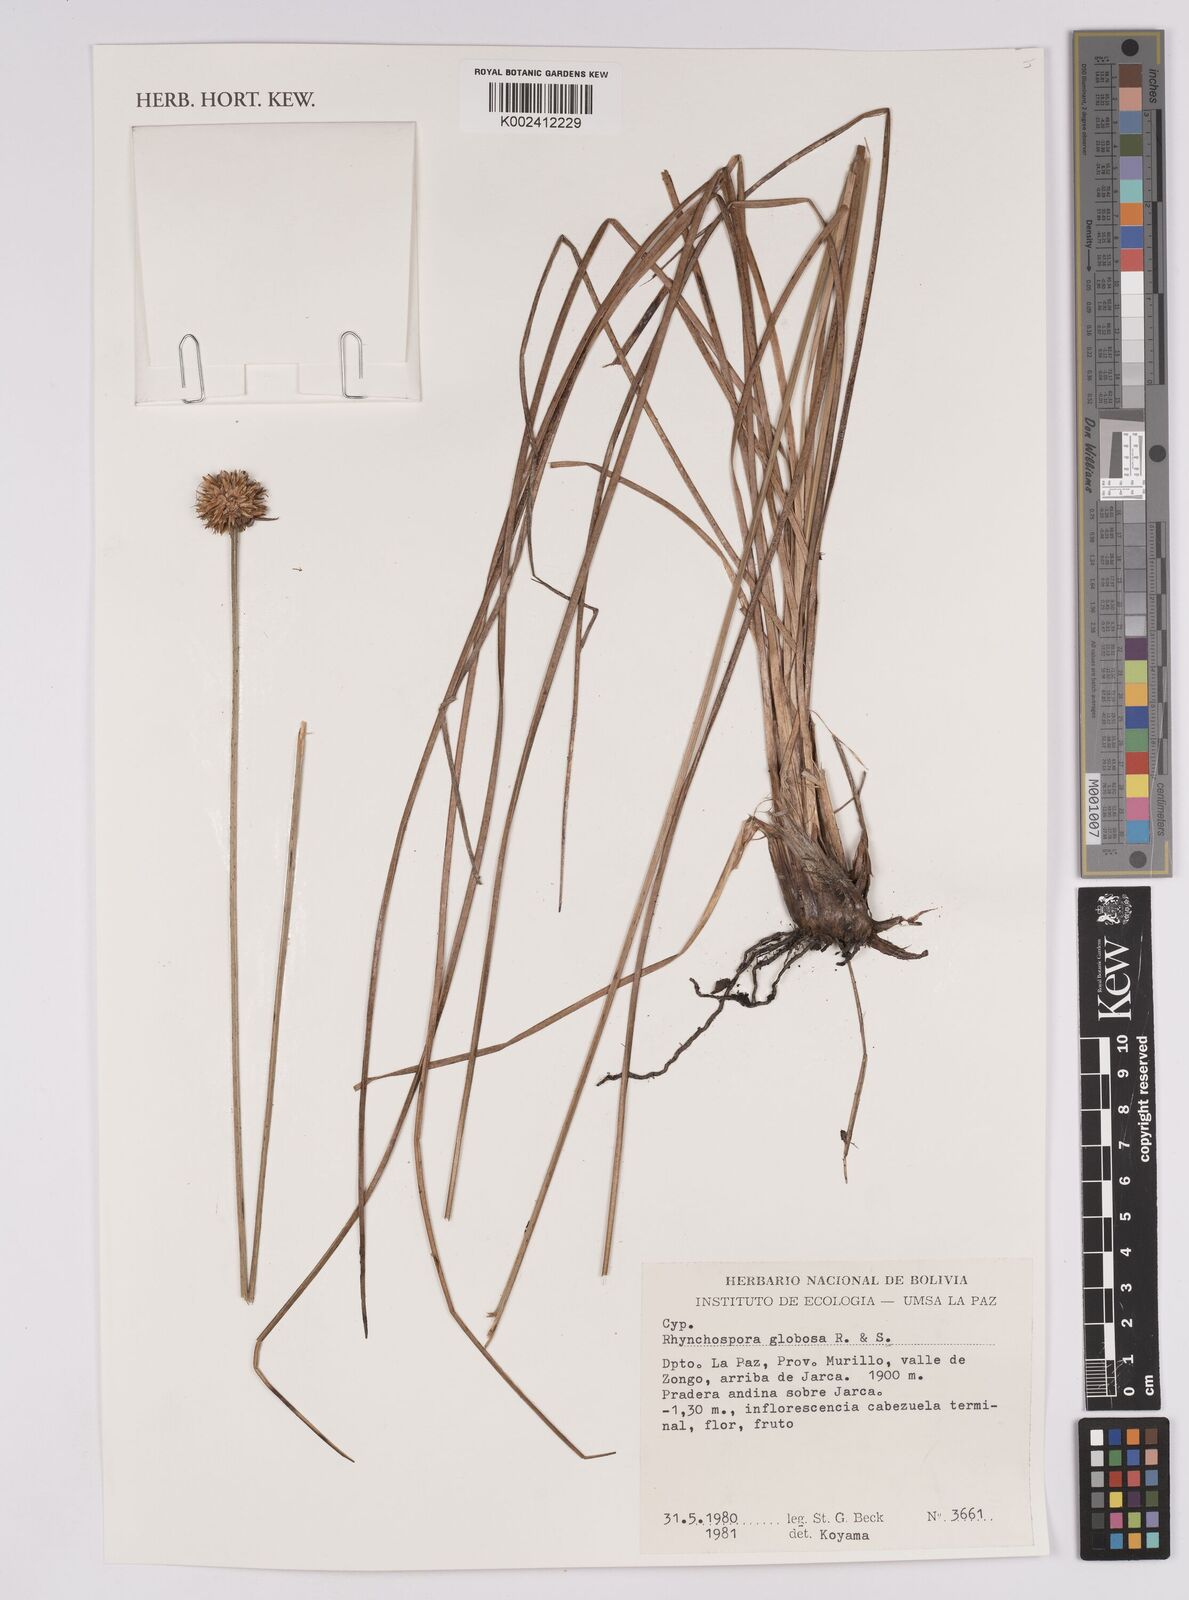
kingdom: Plantae
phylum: Tracheophyta
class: Liliopsida
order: Poales
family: Cyperaceae
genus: Rhynchospora
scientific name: Rhynchospora globosa
